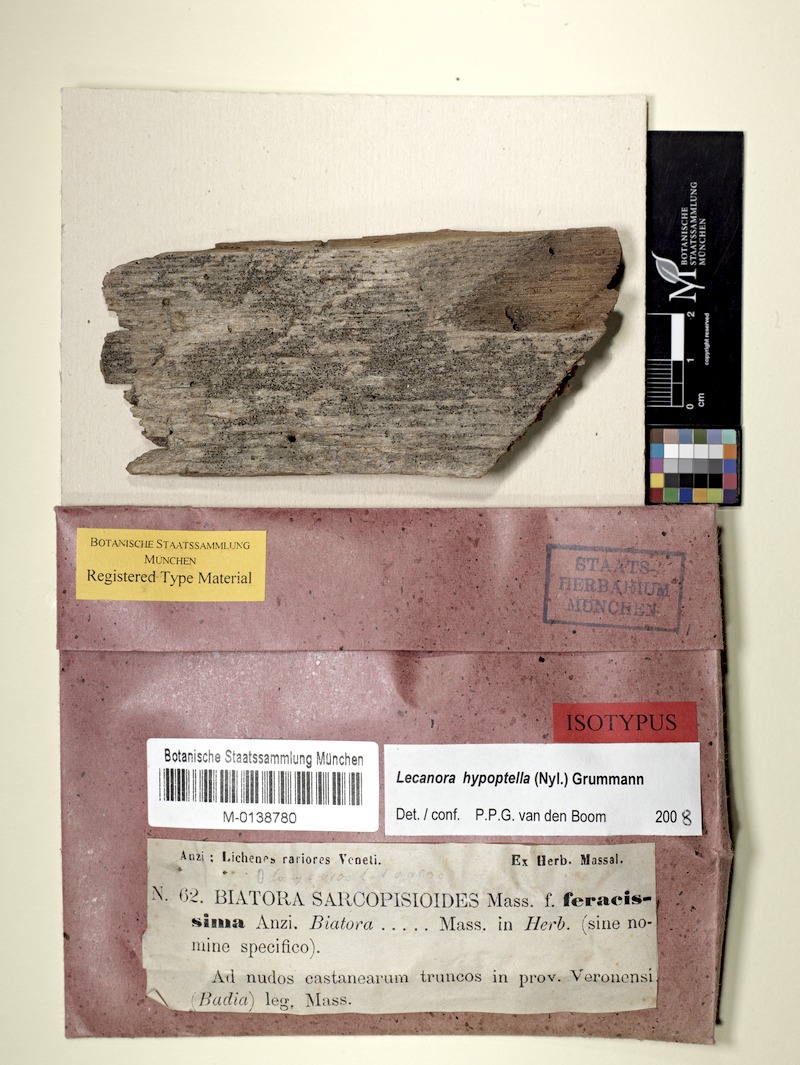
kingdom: Fungi
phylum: Ascomycota
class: Lecanoromycetes
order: Lecanorales
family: Lecanoraceae
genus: Lecanora
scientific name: Lecanora hypoptella
